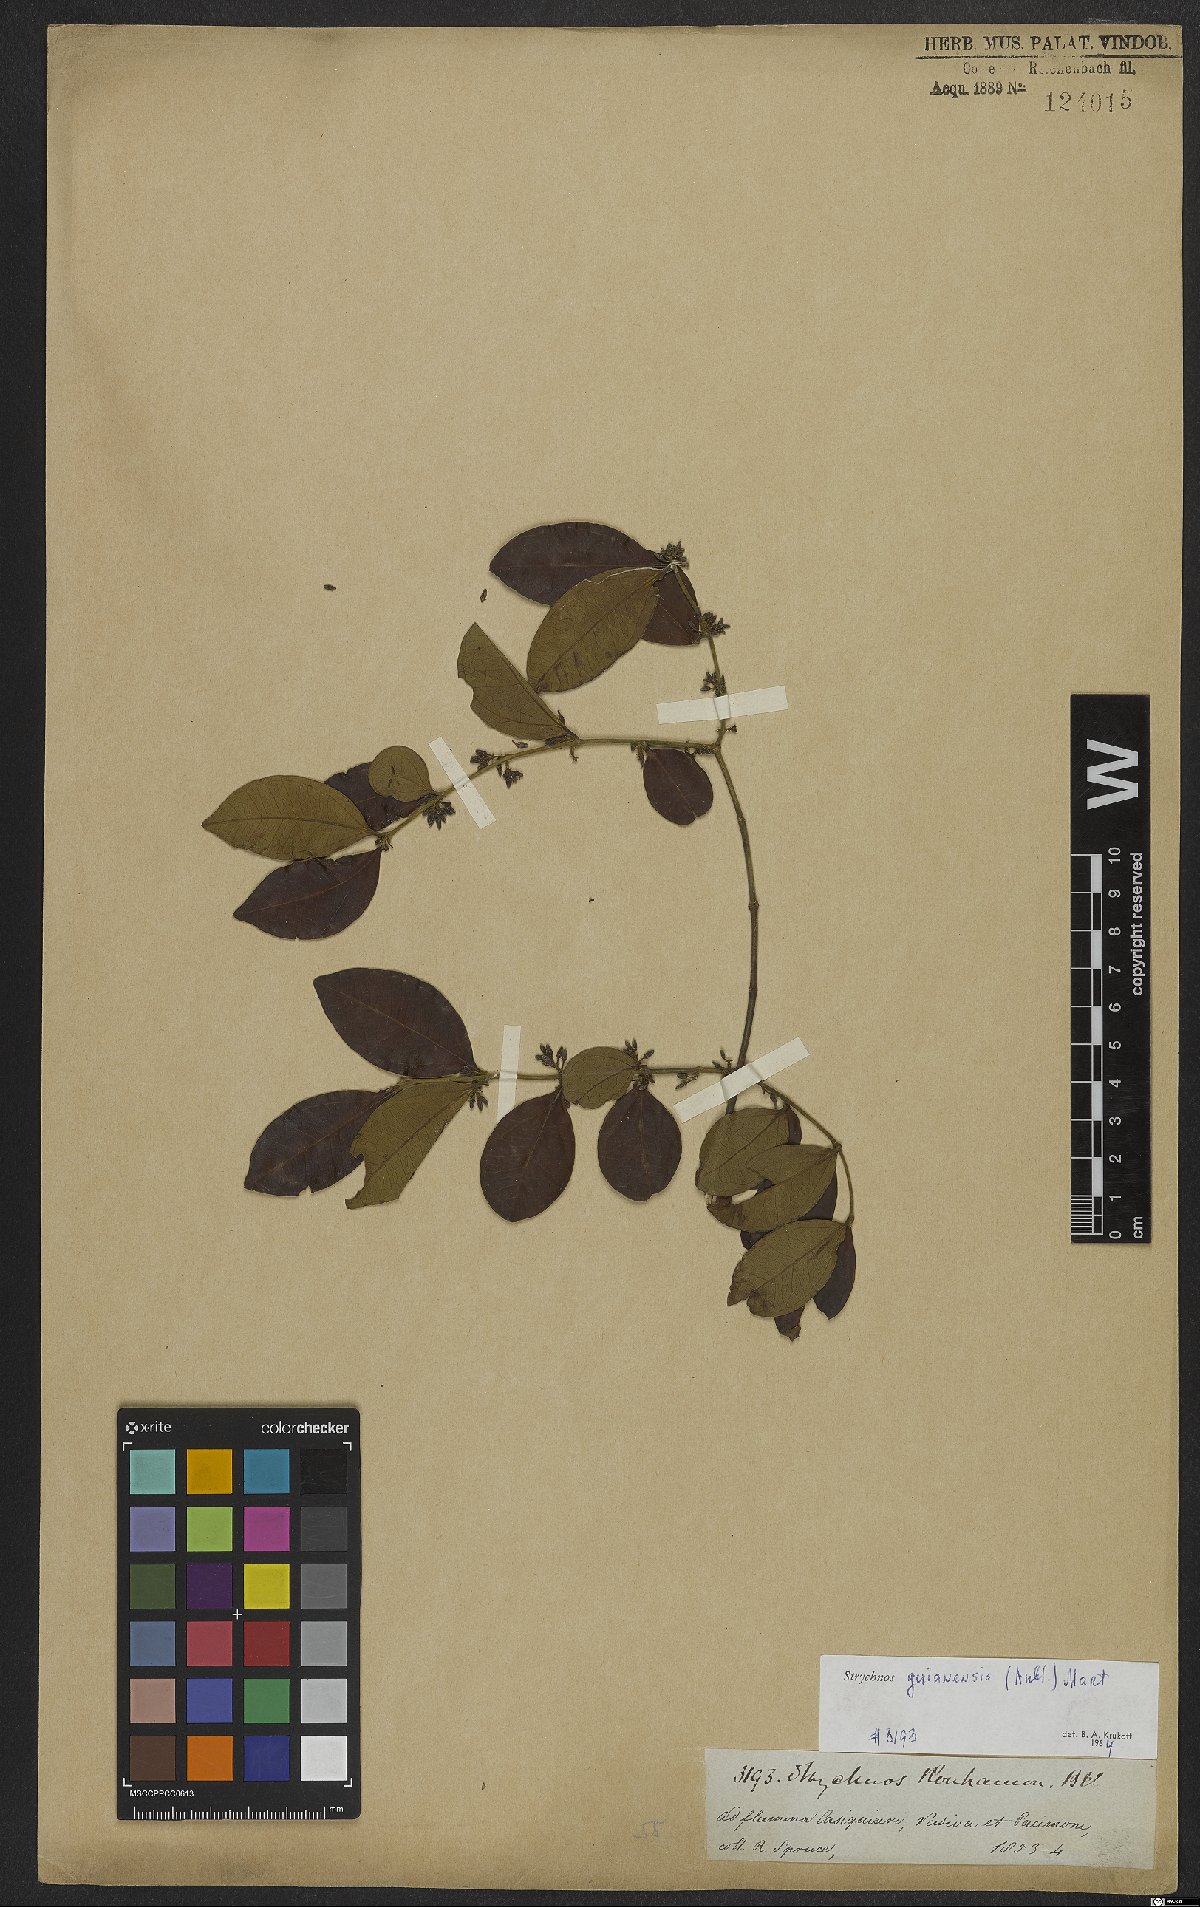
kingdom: Plantae
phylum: Tracheophyta
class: Magnoliopsida
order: Gentianales
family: Loganiaceae
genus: Strychnos
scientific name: Strychnos guianensis
